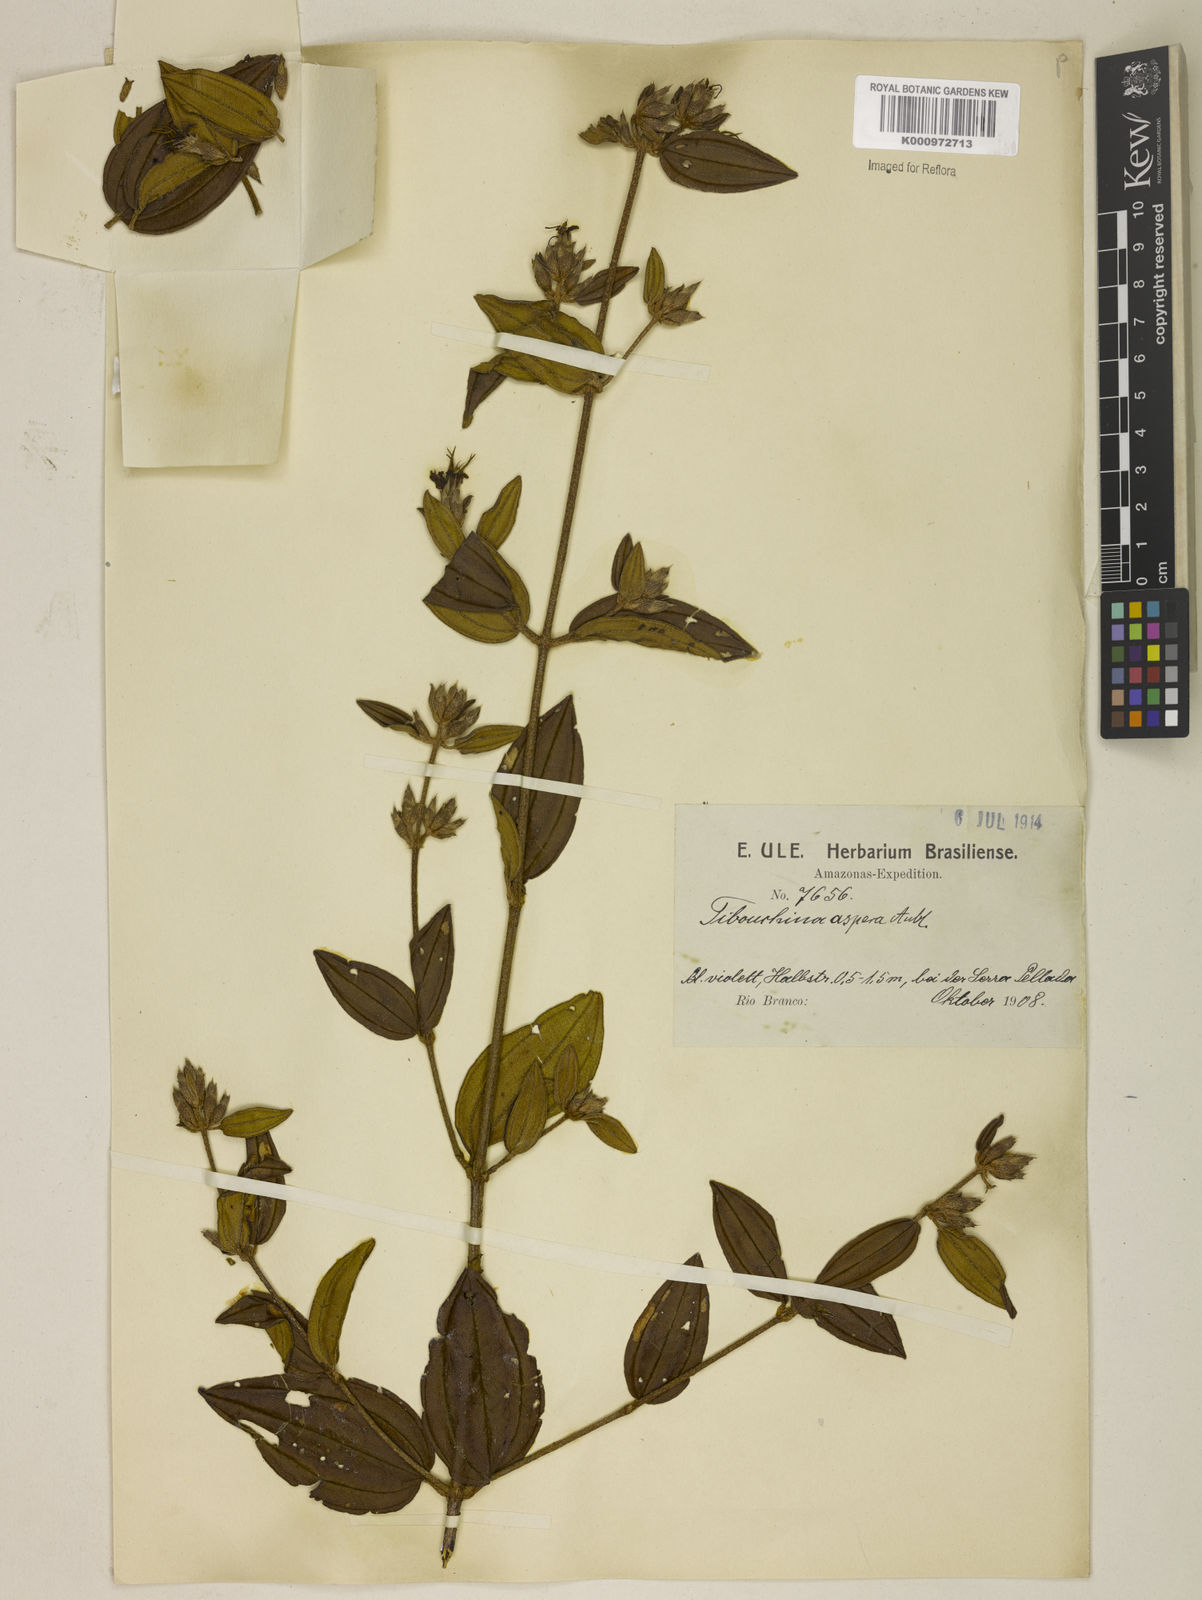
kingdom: Plantae
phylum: Tracheophyta
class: Magnoliopsida
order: Myrtales
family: Melastomataceae
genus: Tibouchina
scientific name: Tibouchina aspera
